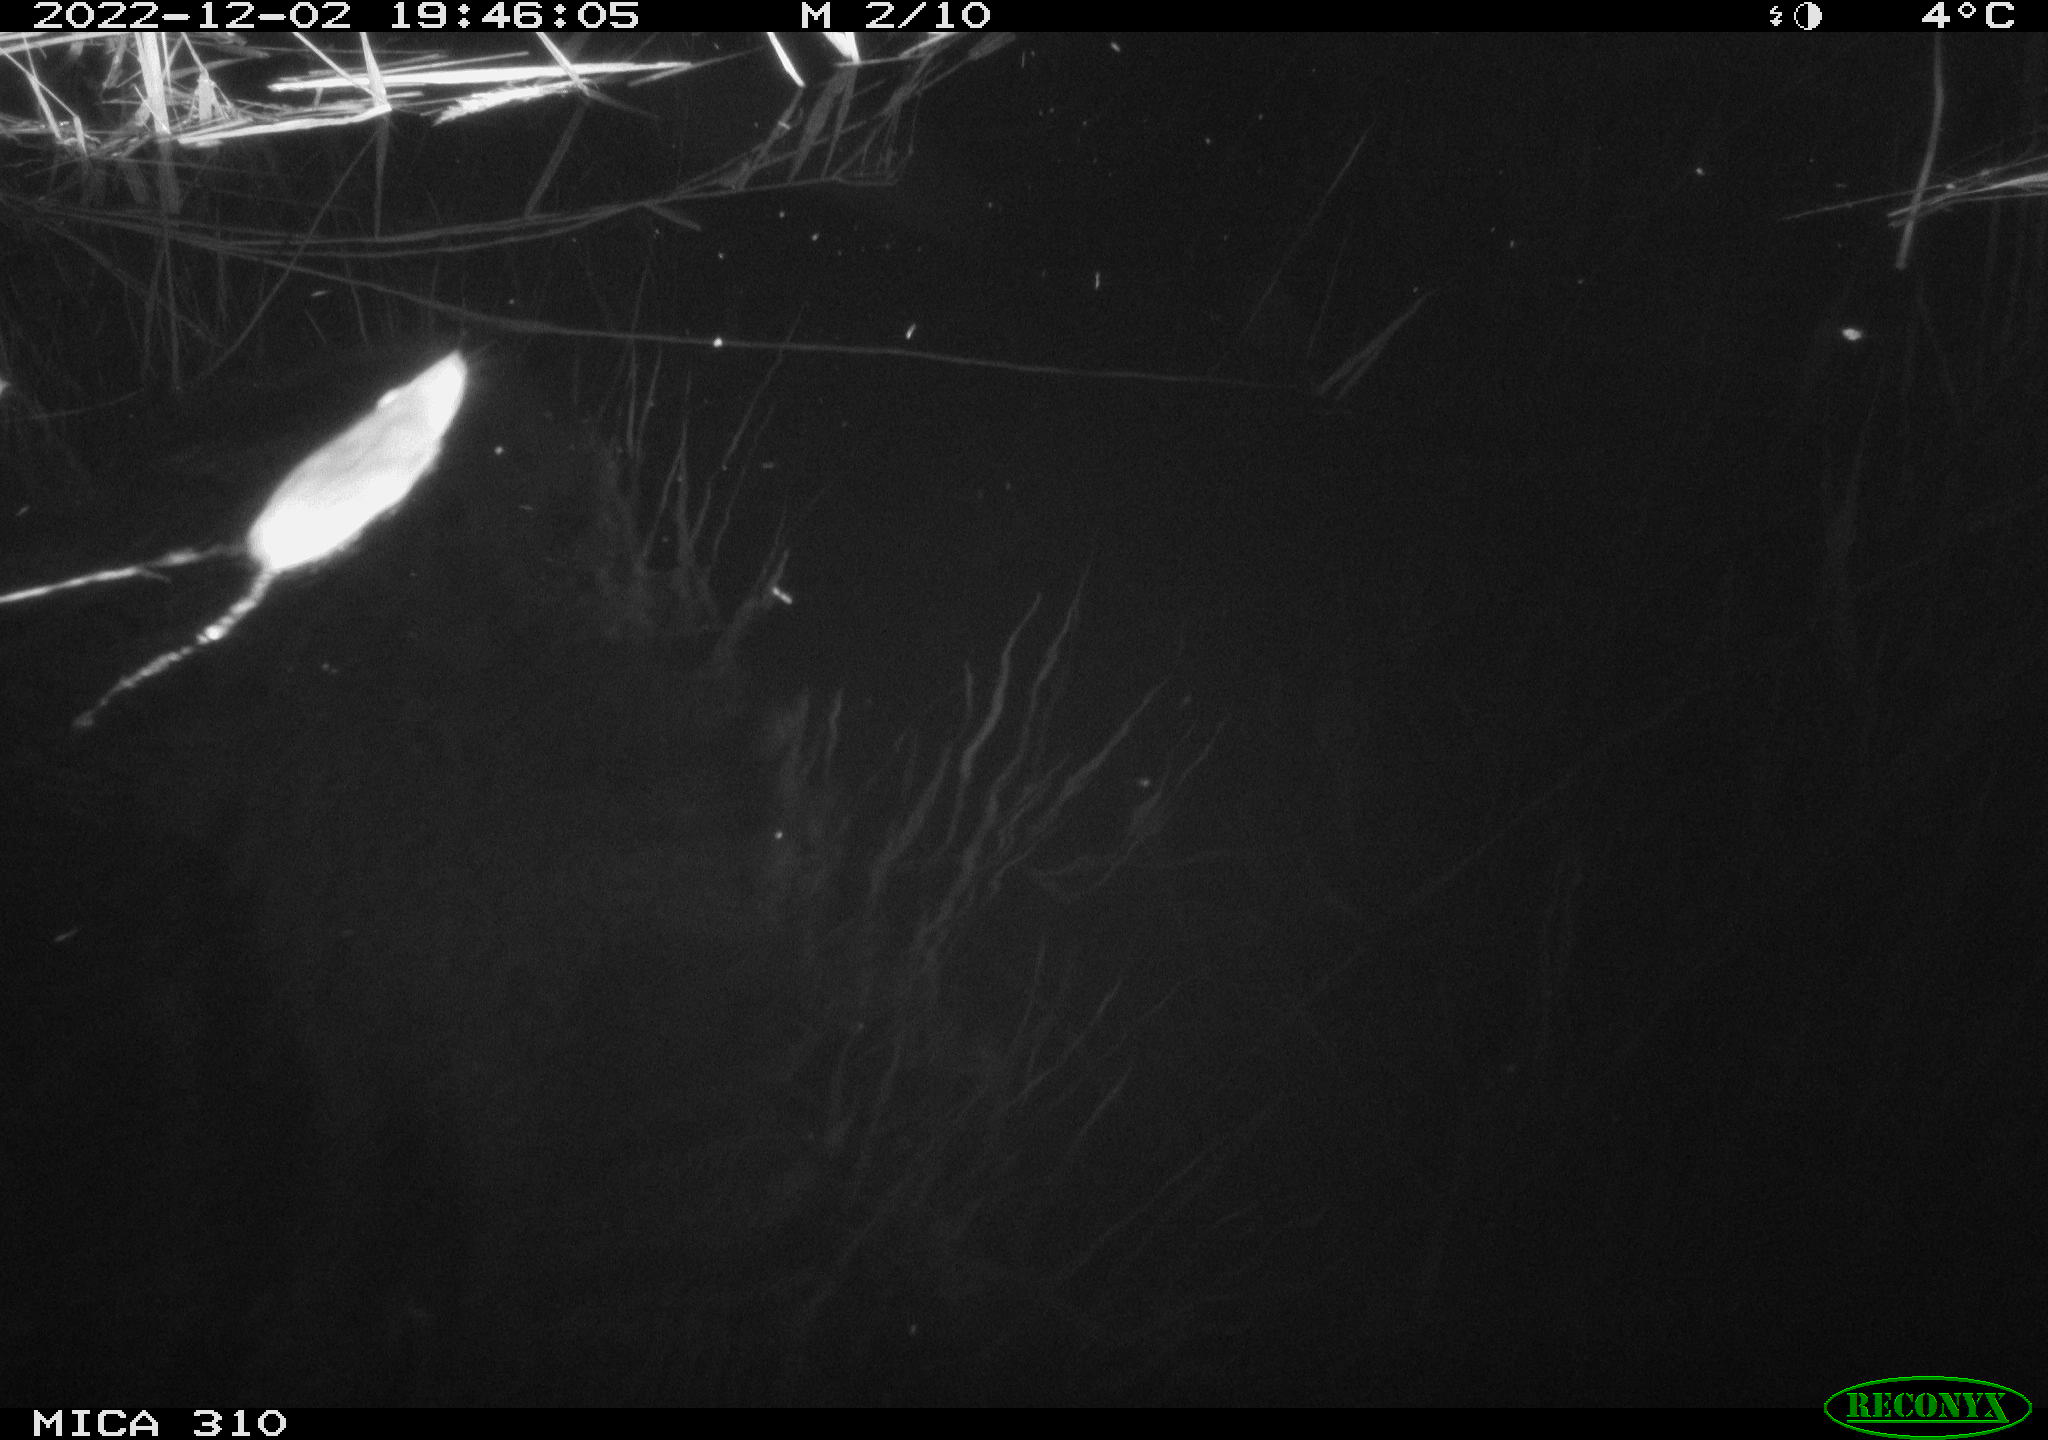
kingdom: Animalia
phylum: Chordata
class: Mammalia
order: Rodentia
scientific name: Rodentia
